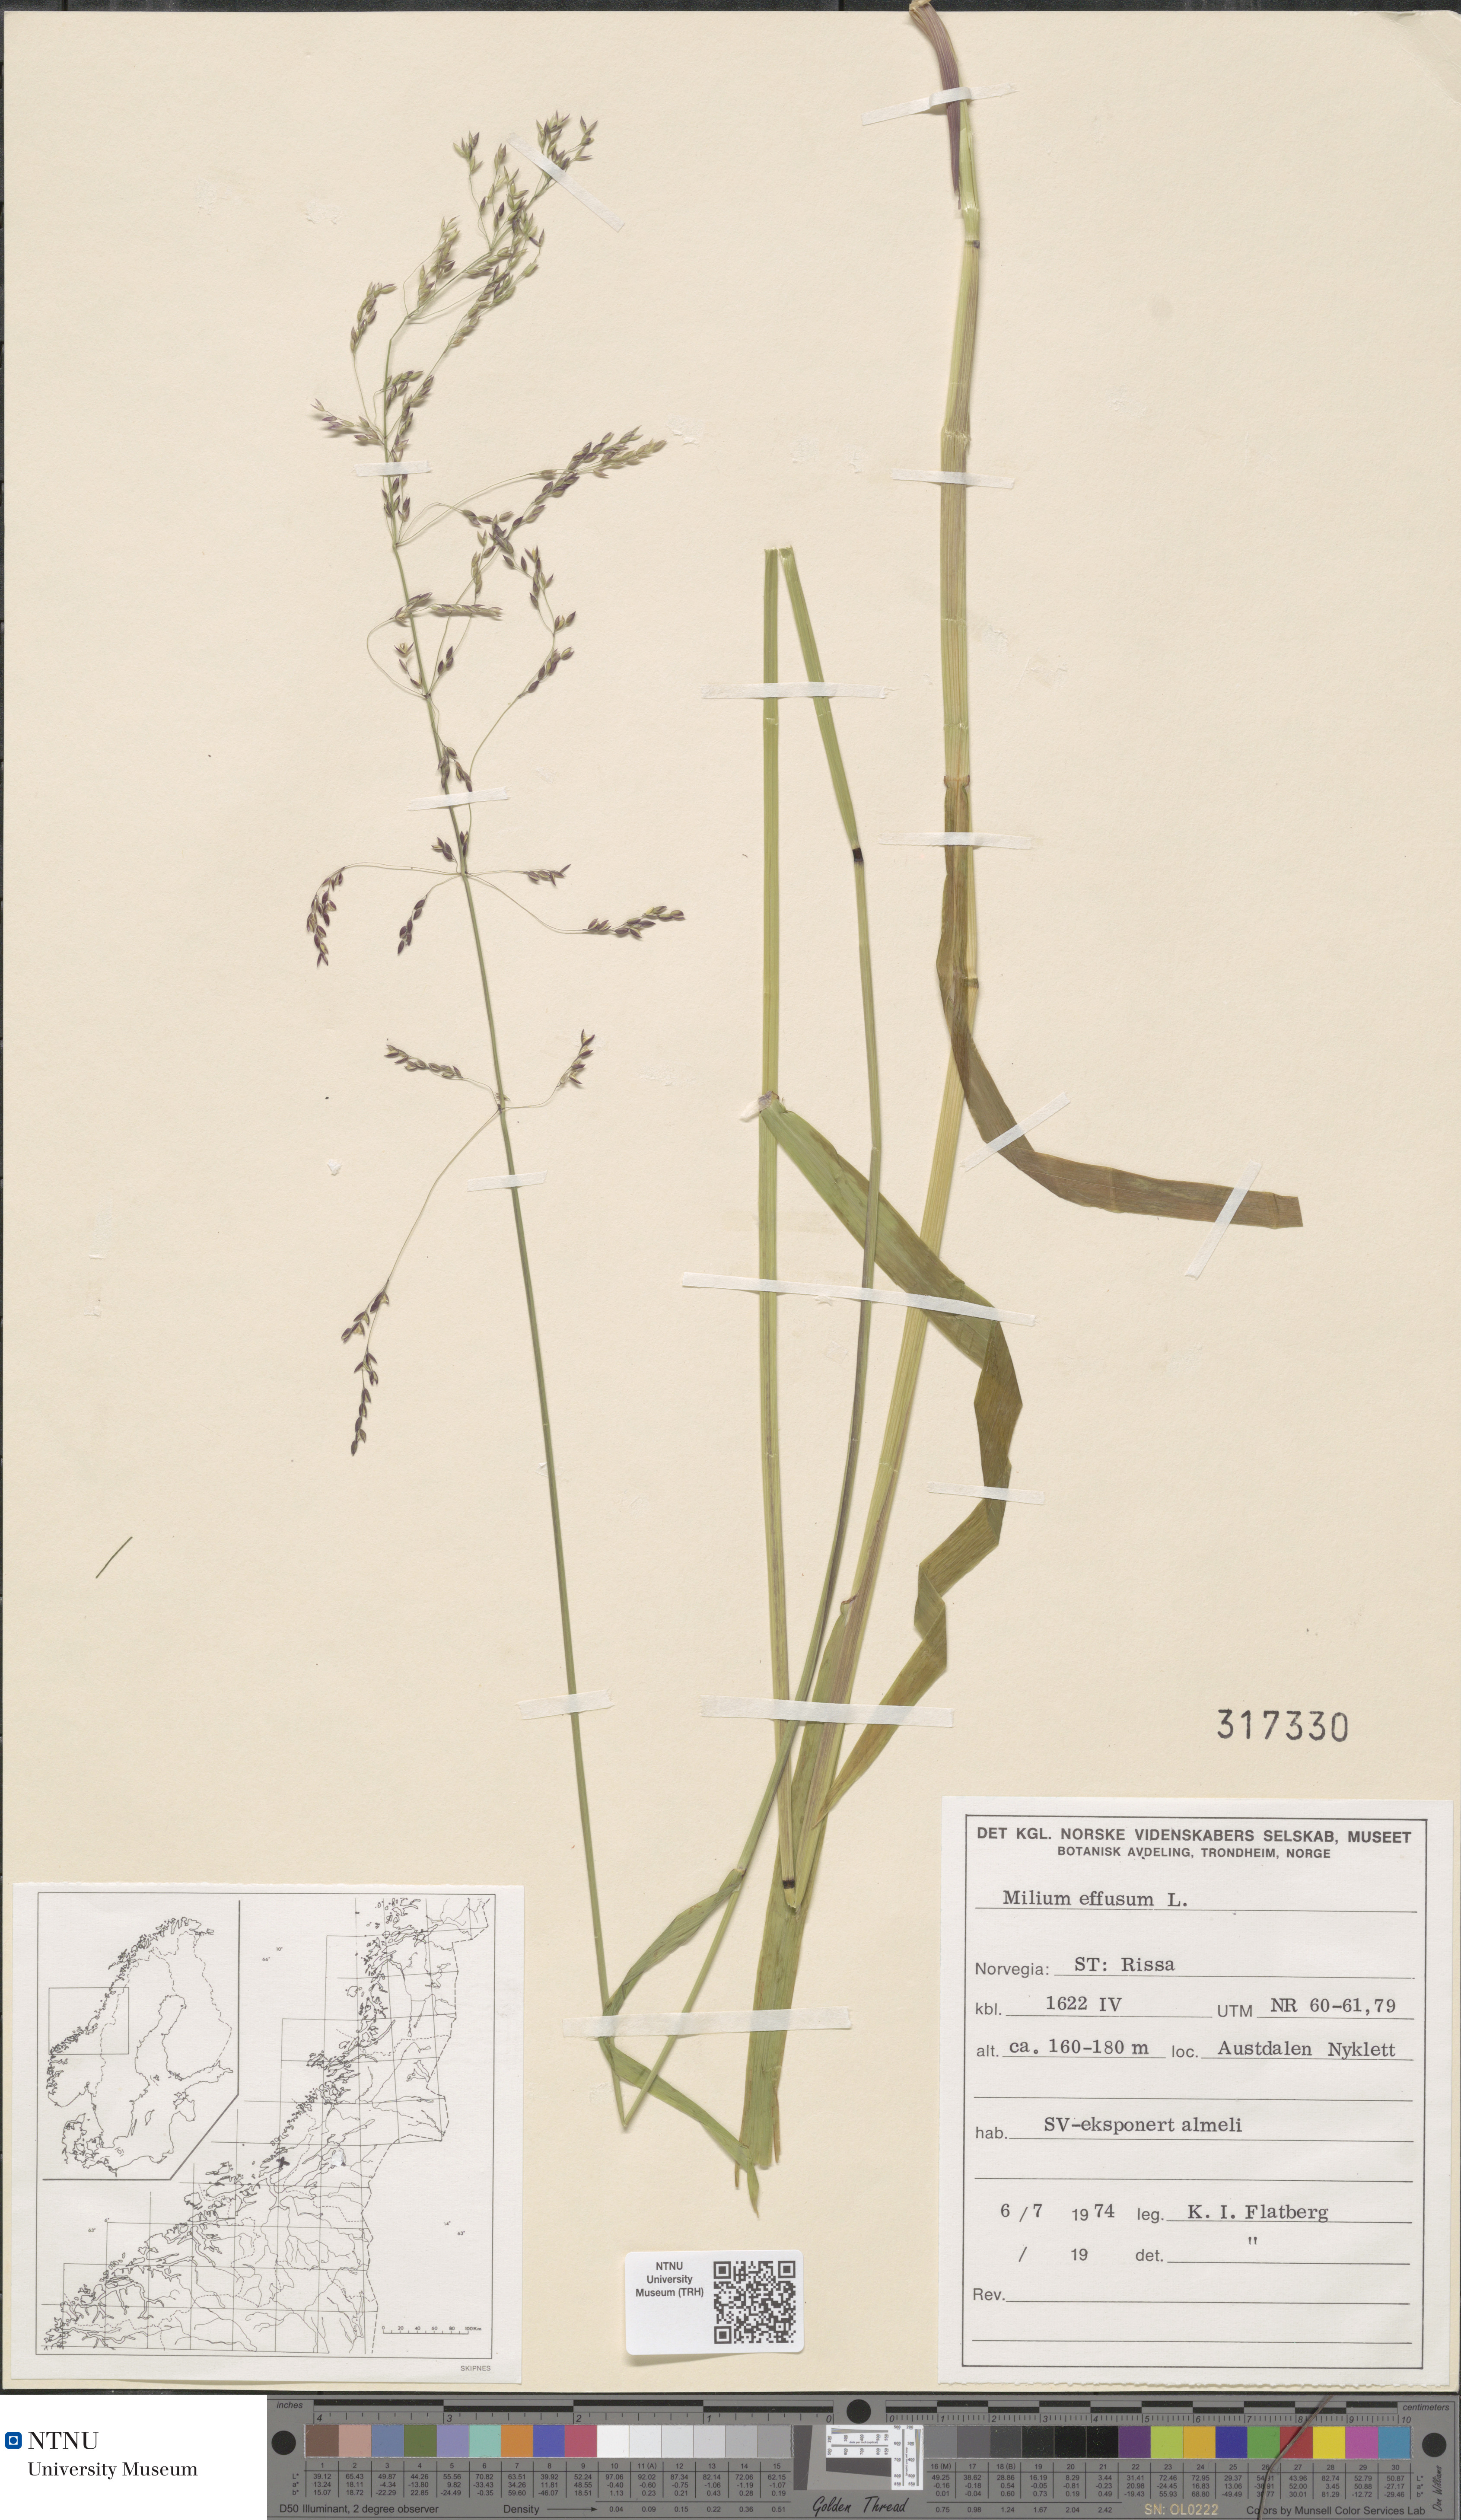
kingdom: Plantae
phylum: Tracheophyta
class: Liliopsida
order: Poales
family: Poaceae
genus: Milium
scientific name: Milium effusum
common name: Wood millet
